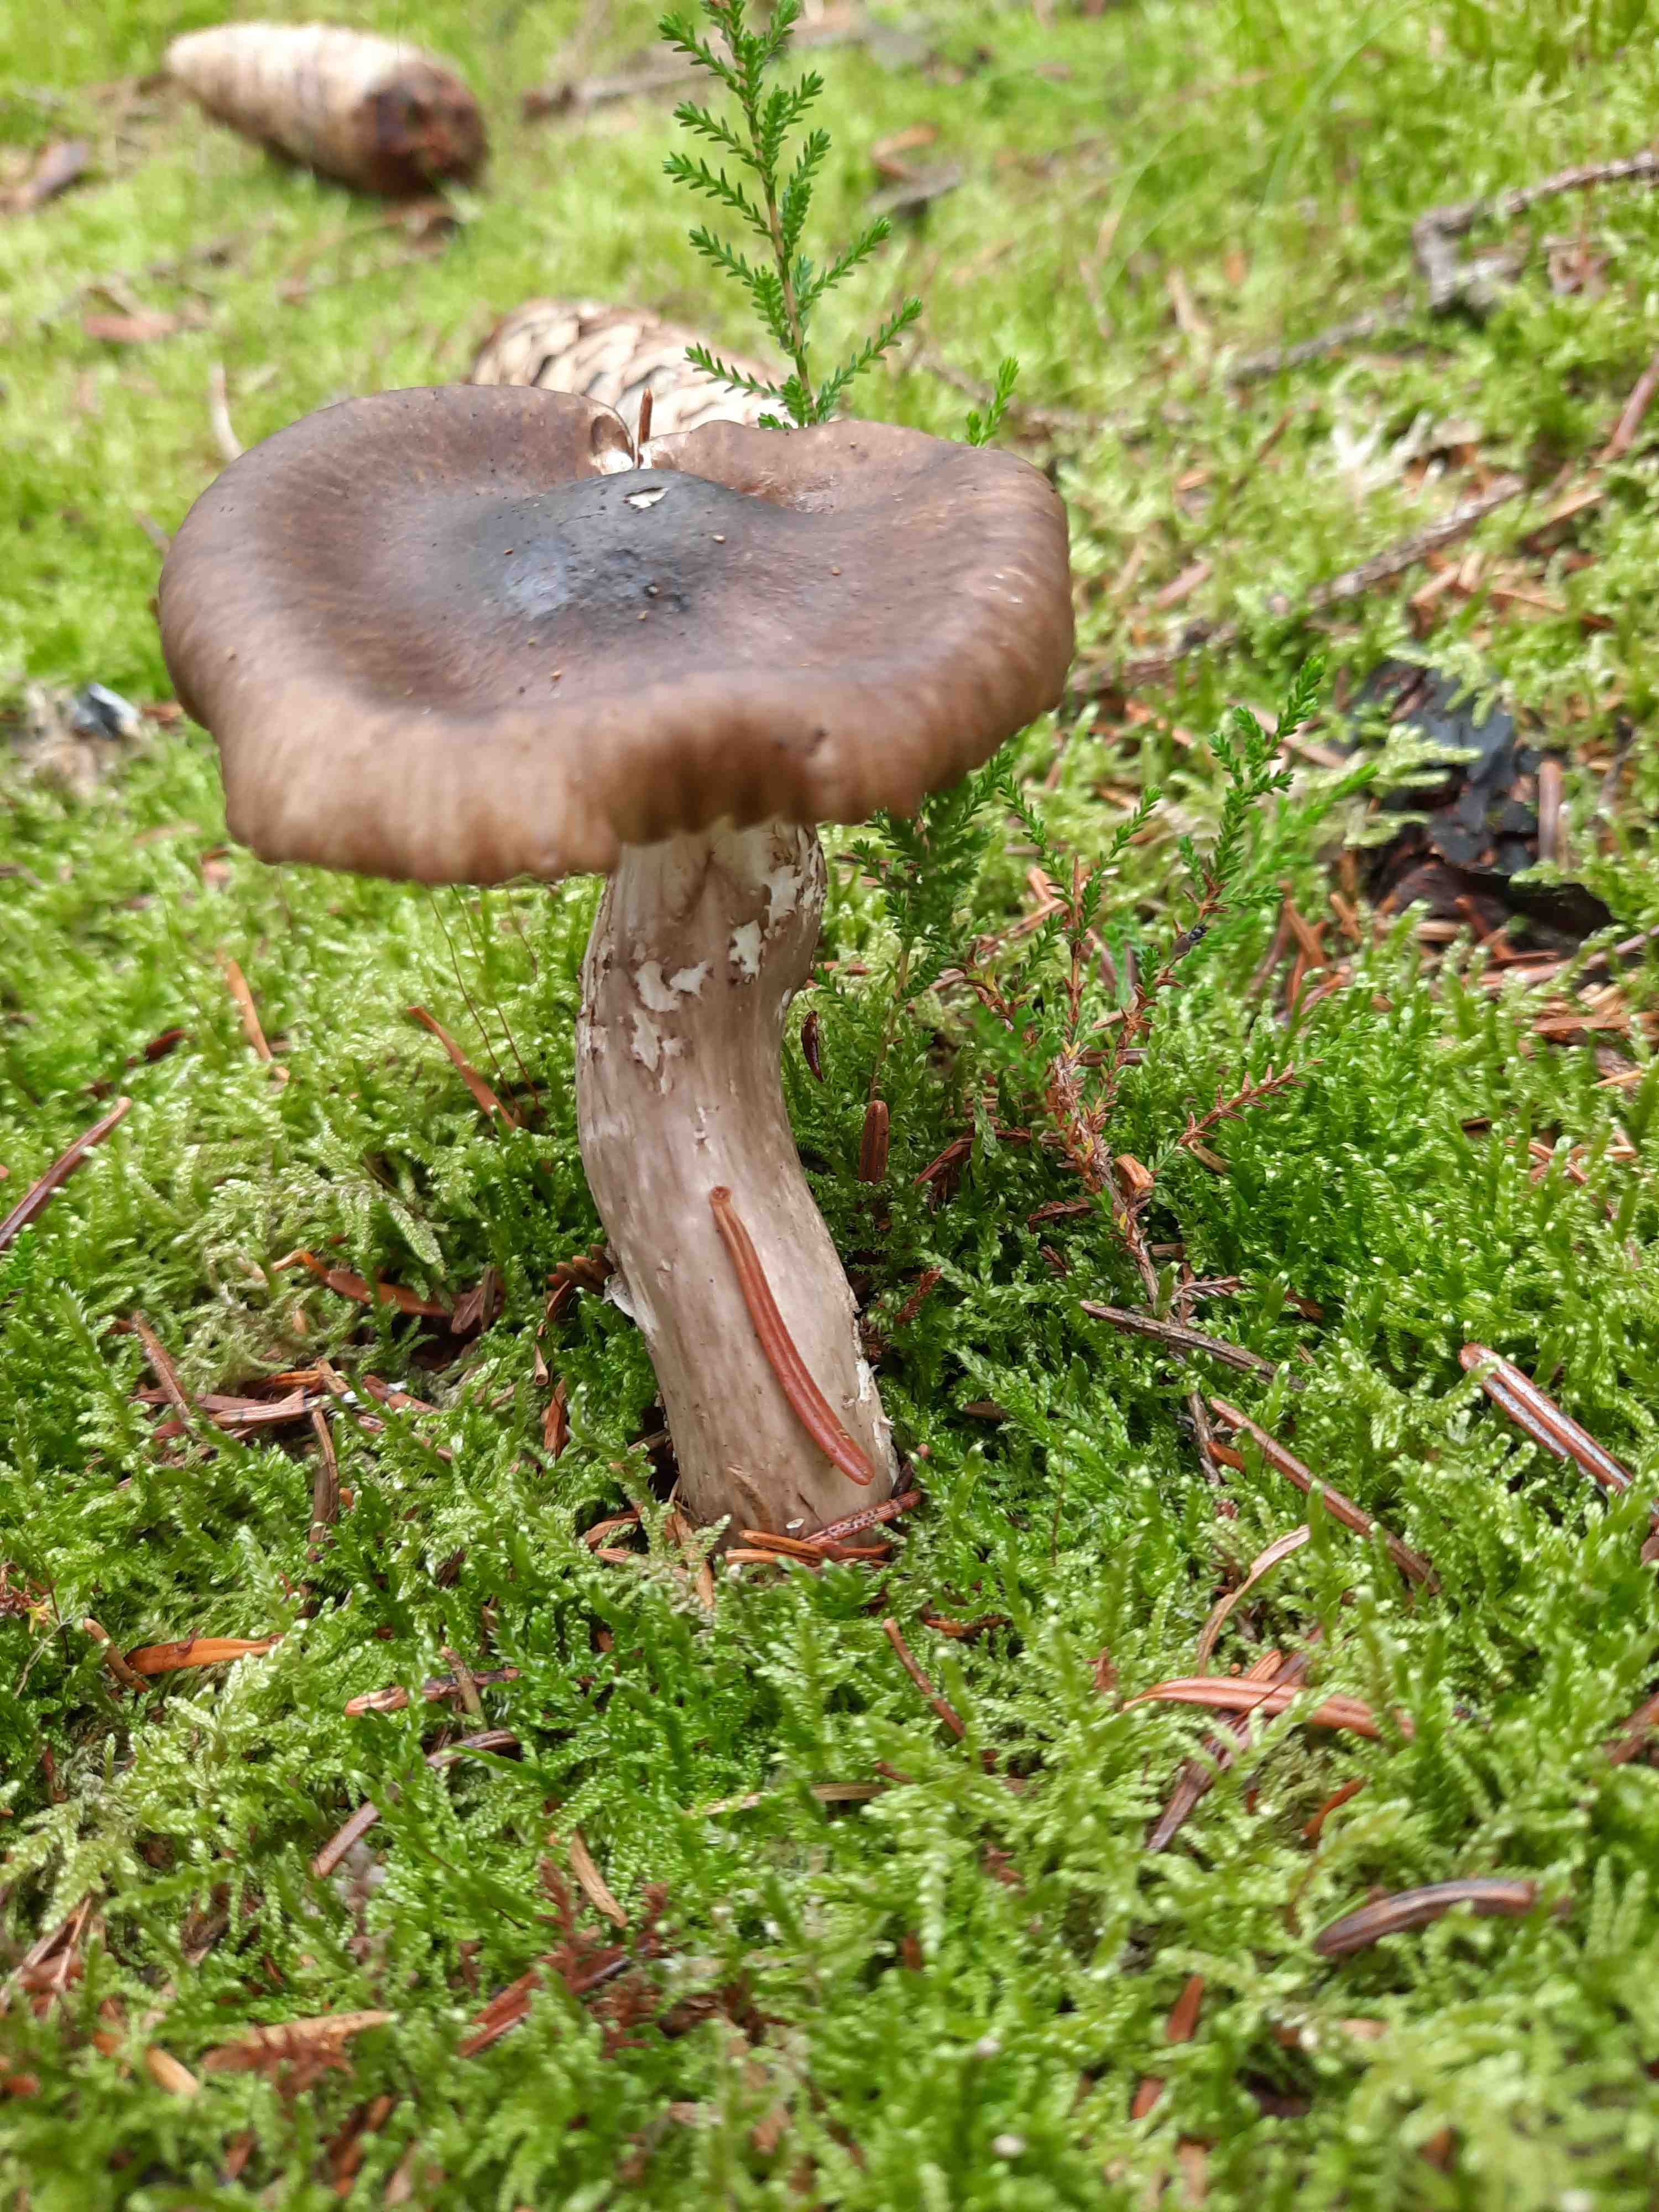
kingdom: Fungi
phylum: Basidiomycota
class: Agaricomycetes
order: Agaricales
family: Hygrophoraceae
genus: Hygrophorus
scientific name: Hygrophorus olivaceoalbus
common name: hvidbrun sneglehat
